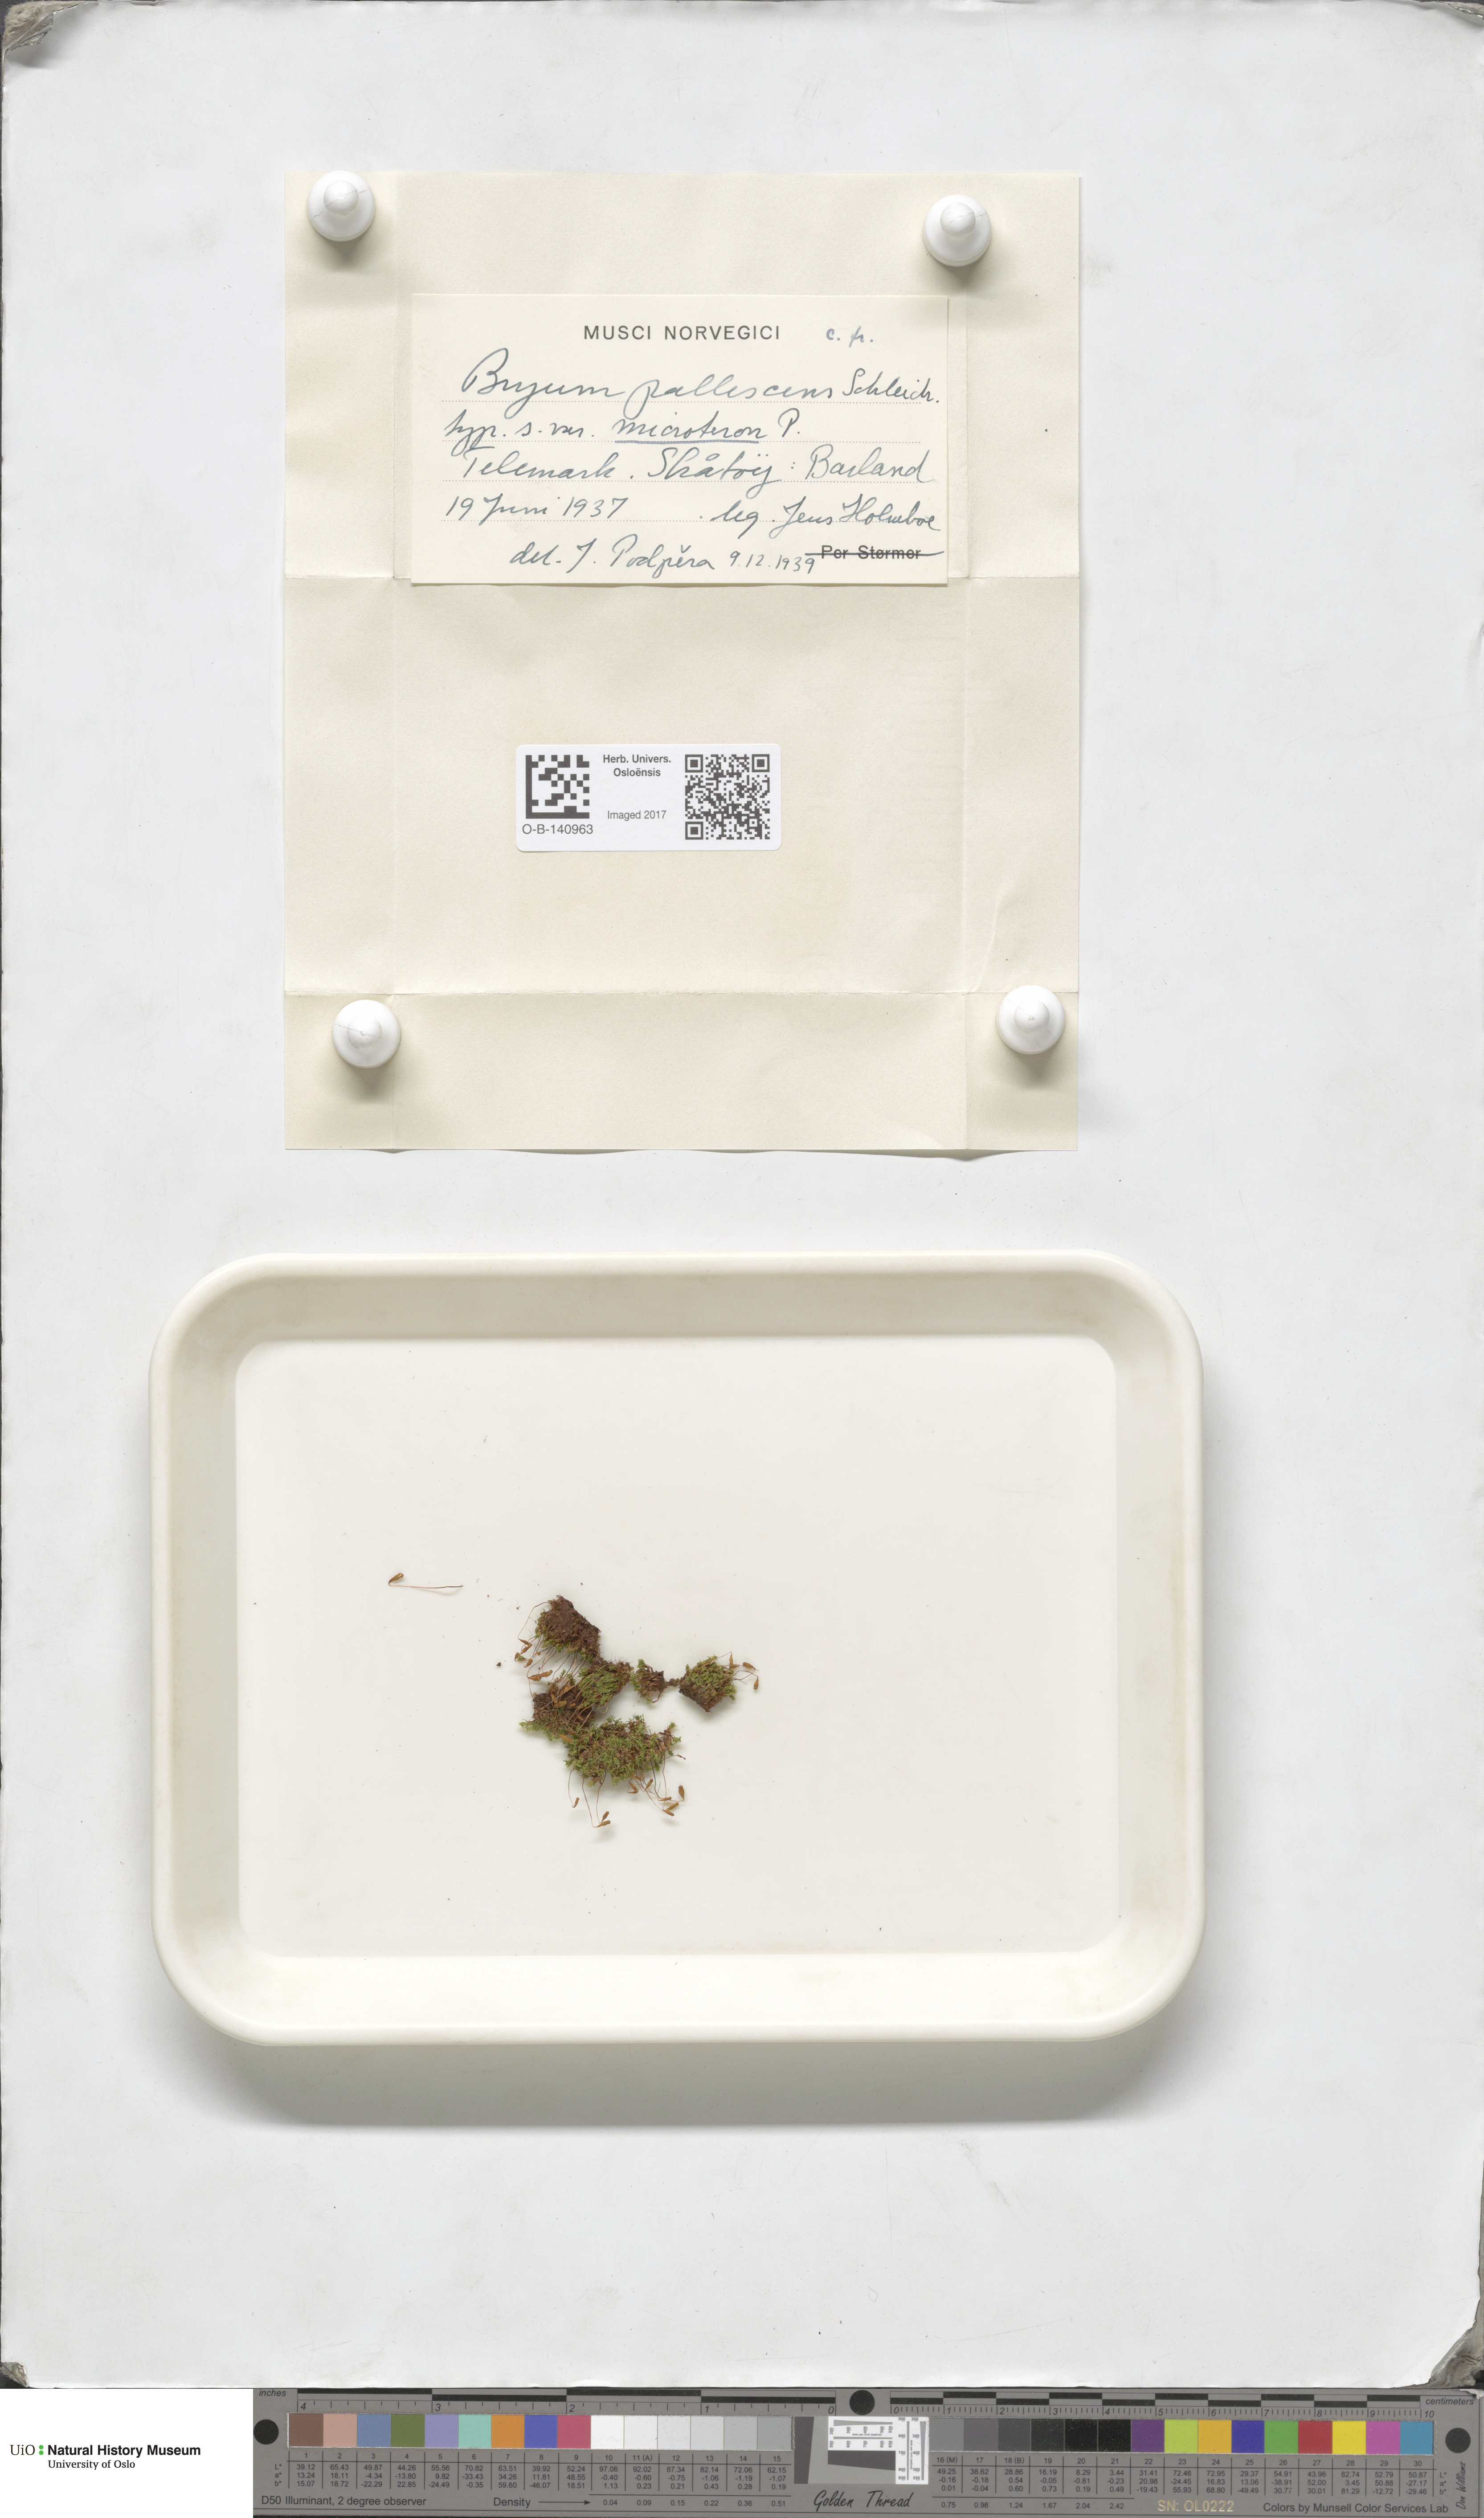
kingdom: Plantae
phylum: Bryophyta
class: Bryopsida
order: Bryales
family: Bryaceae
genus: Ptychostomum
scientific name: Ptychostomum pallescens
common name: Tall-clustered thread-moss
